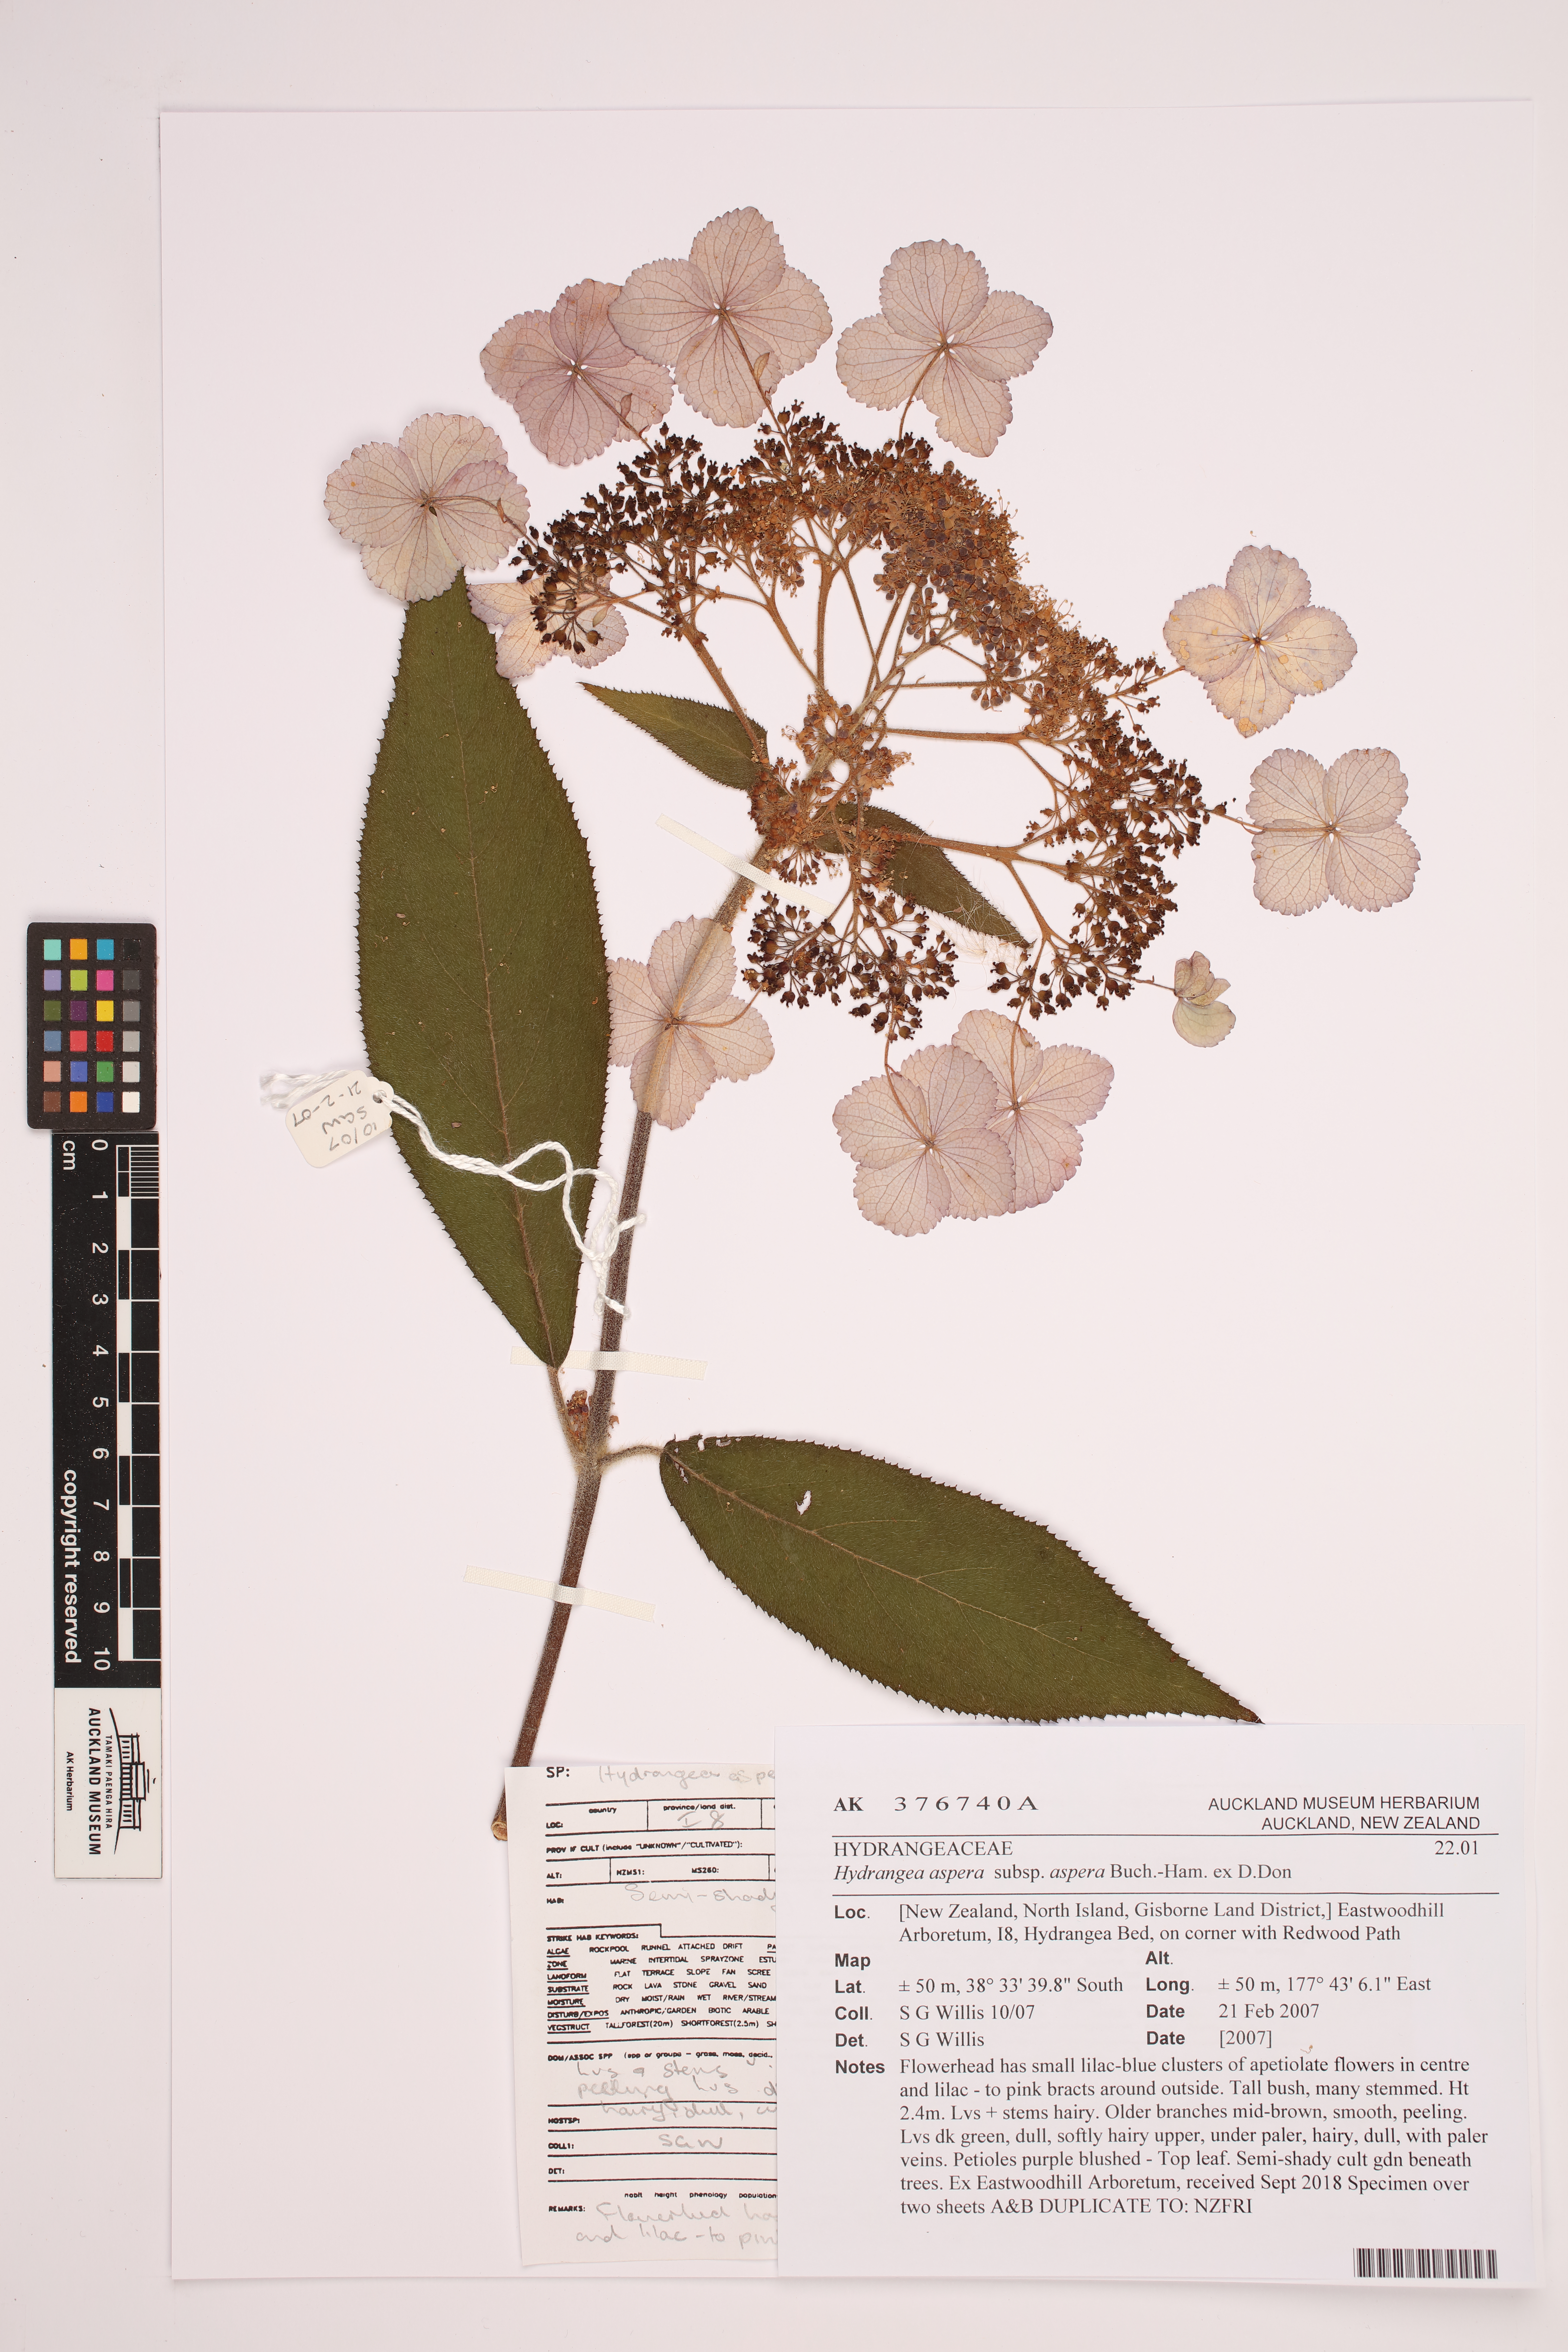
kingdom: Plantae
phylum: Tracheophyta
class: Magnoliopsida
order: Cornales
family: Hydrangeaceae
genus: Hydrangea
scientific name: Hydrangea aspera
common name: Rough-leaf hydrangea
